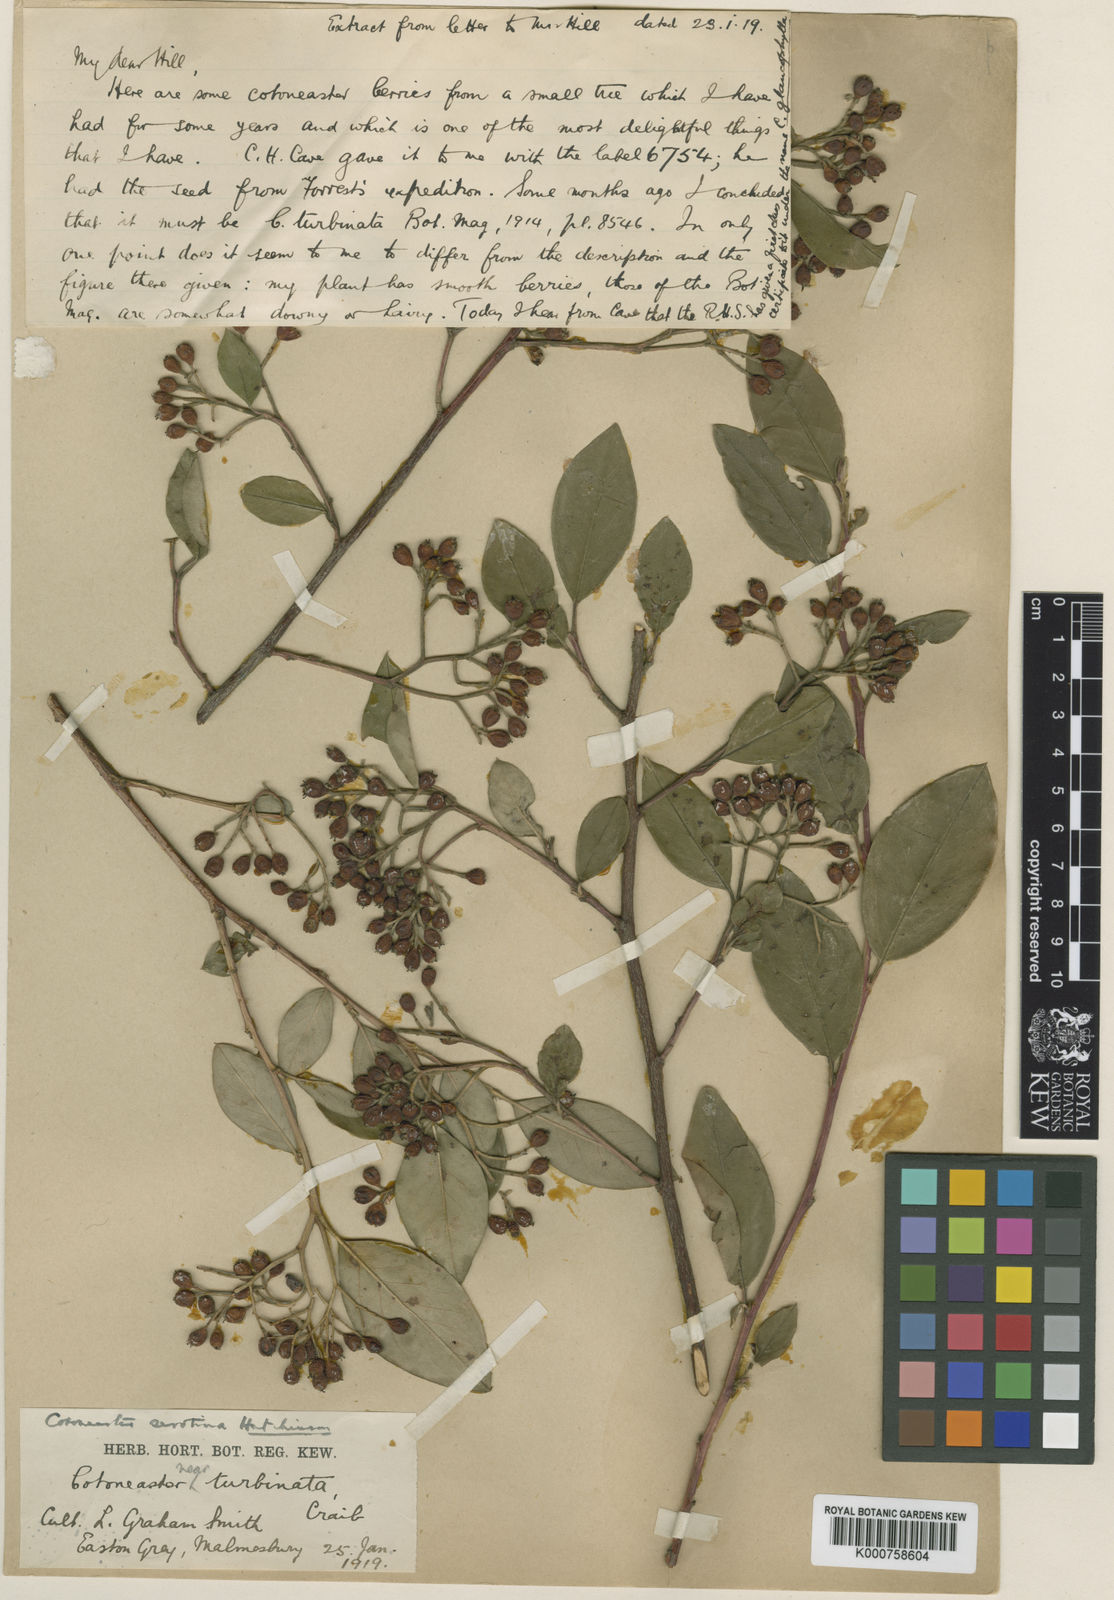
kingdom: Plantae
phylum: Tracheophyta
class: Magnoliopsida
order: Rosales
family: Rosaceae
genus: Cotoneaster
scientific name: Cotoneaster glaucophyllus
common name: Glaucous cotoneaster
